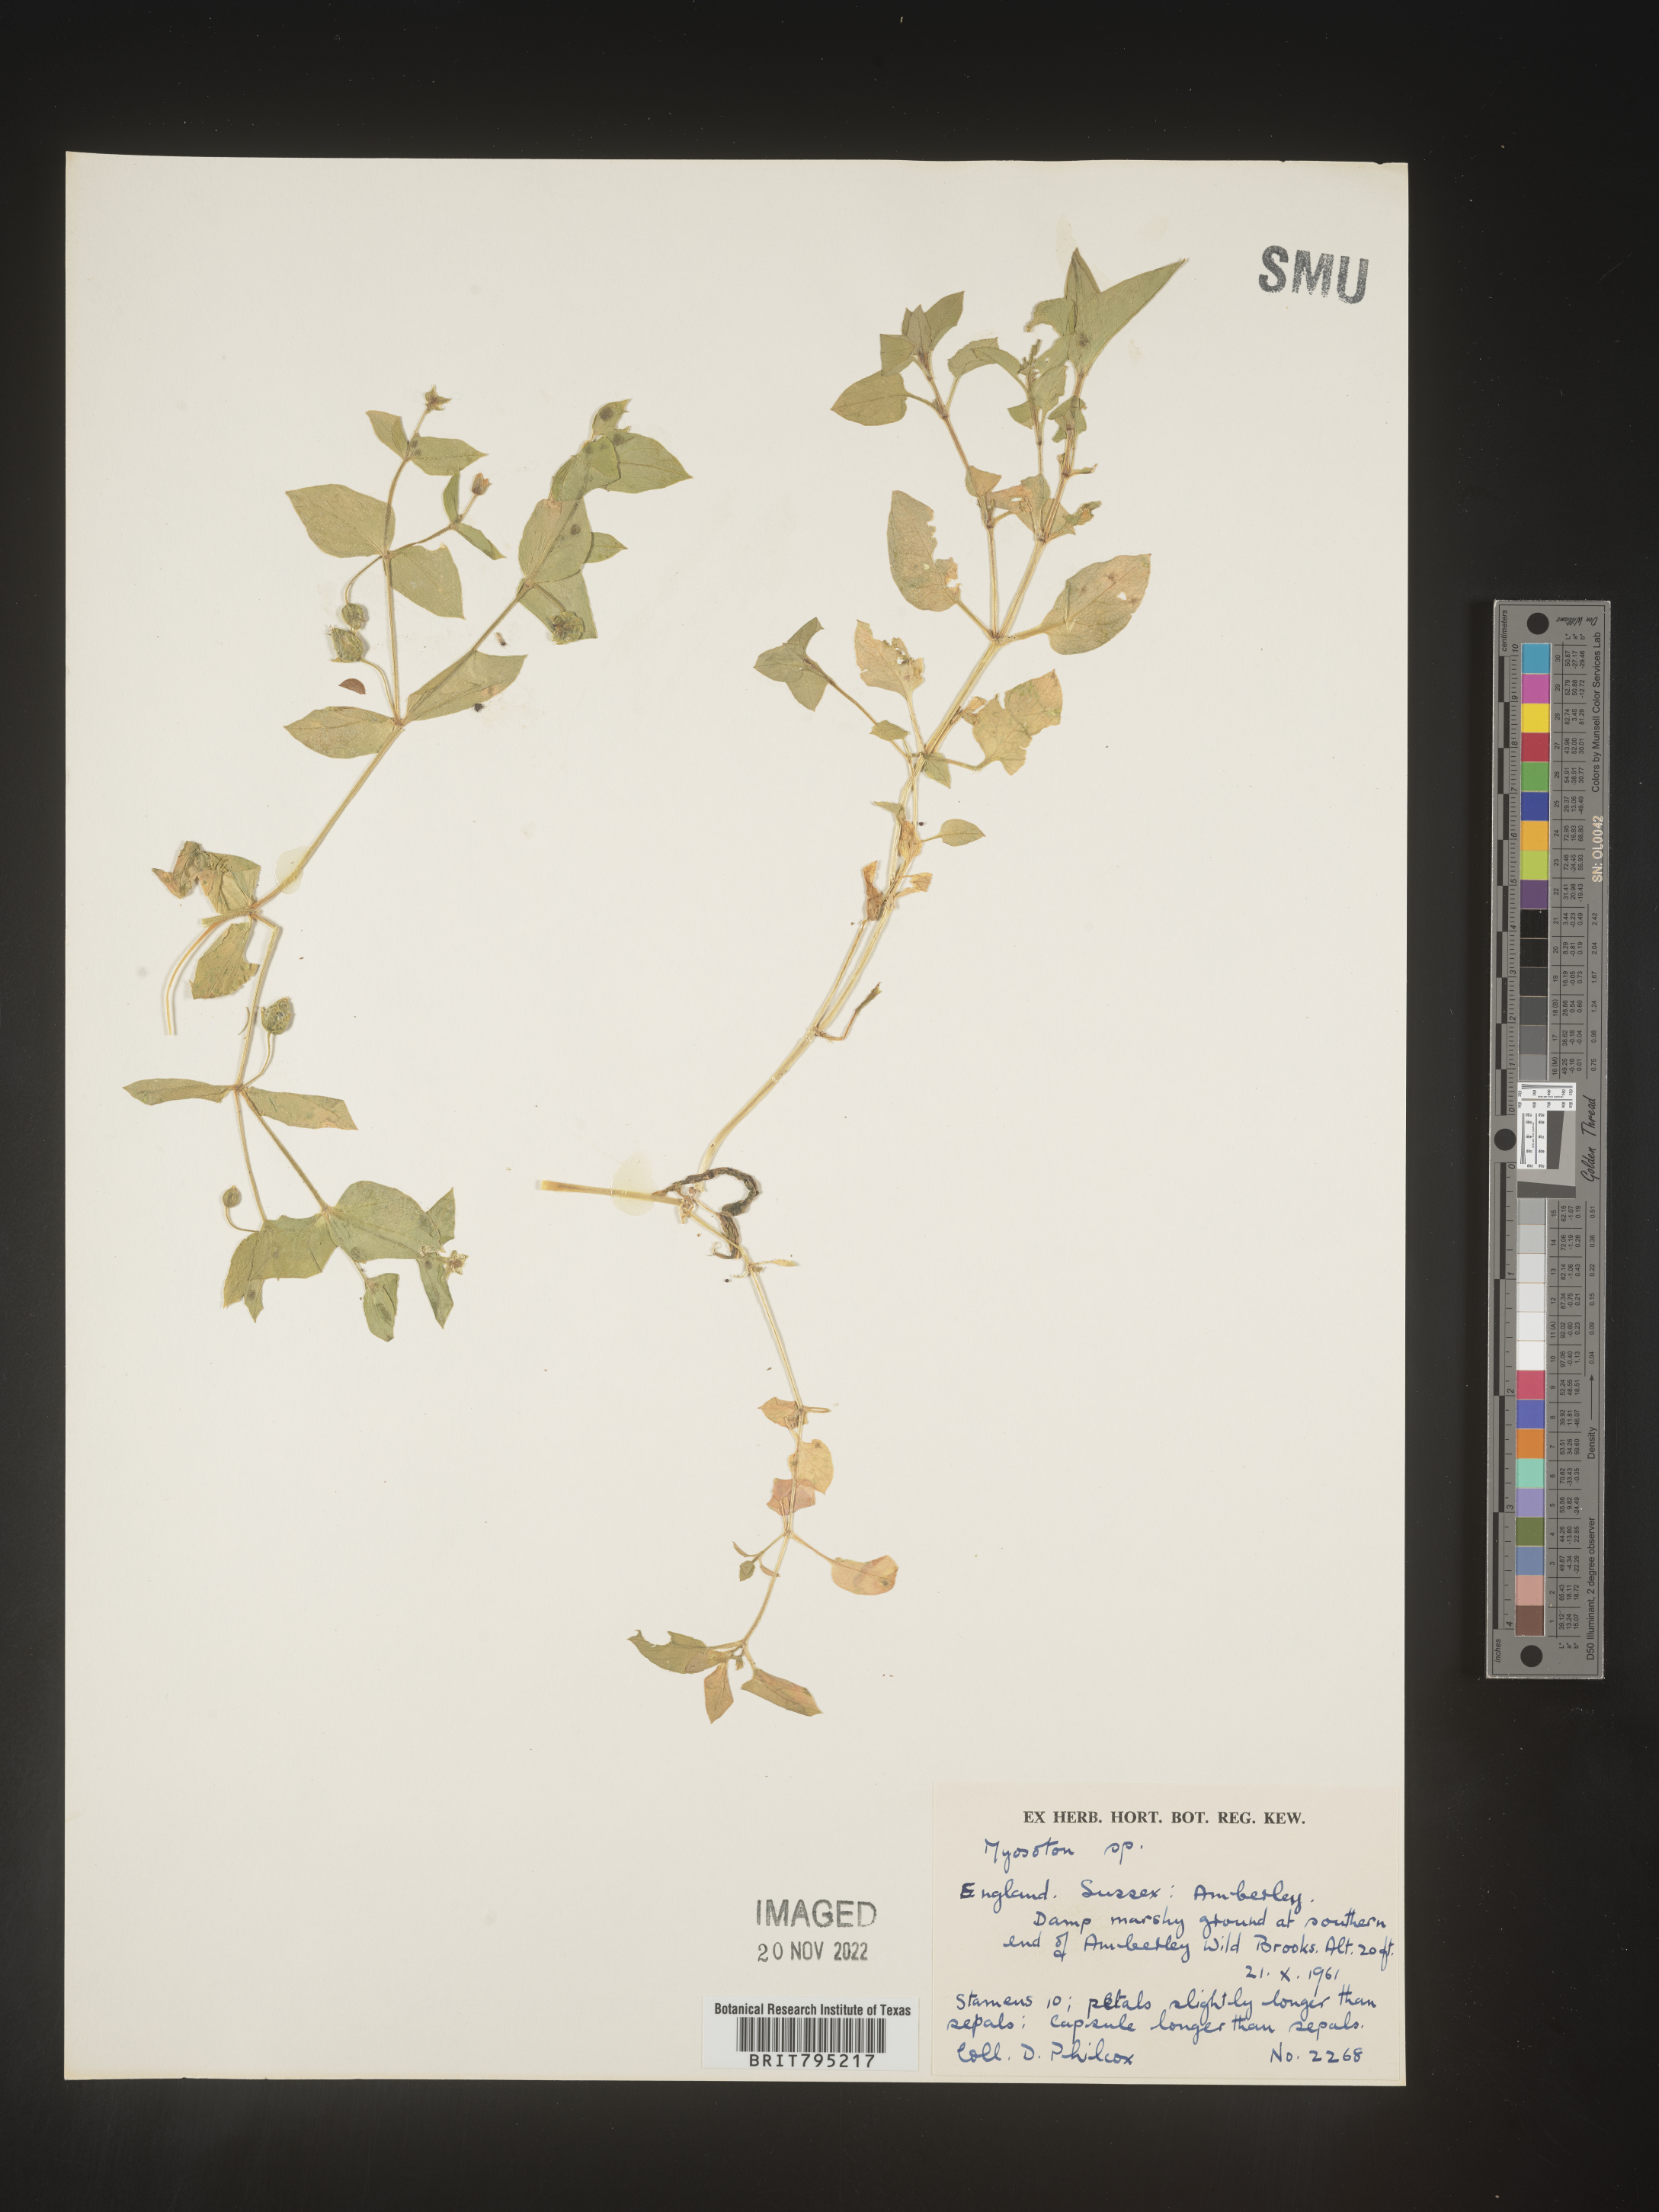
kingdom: Plantae
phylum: Tracheophyta
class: Magnoliopsida
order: Caryophyllales
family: Caryophyllaceae
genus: Stellaria
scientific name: Stellaria
